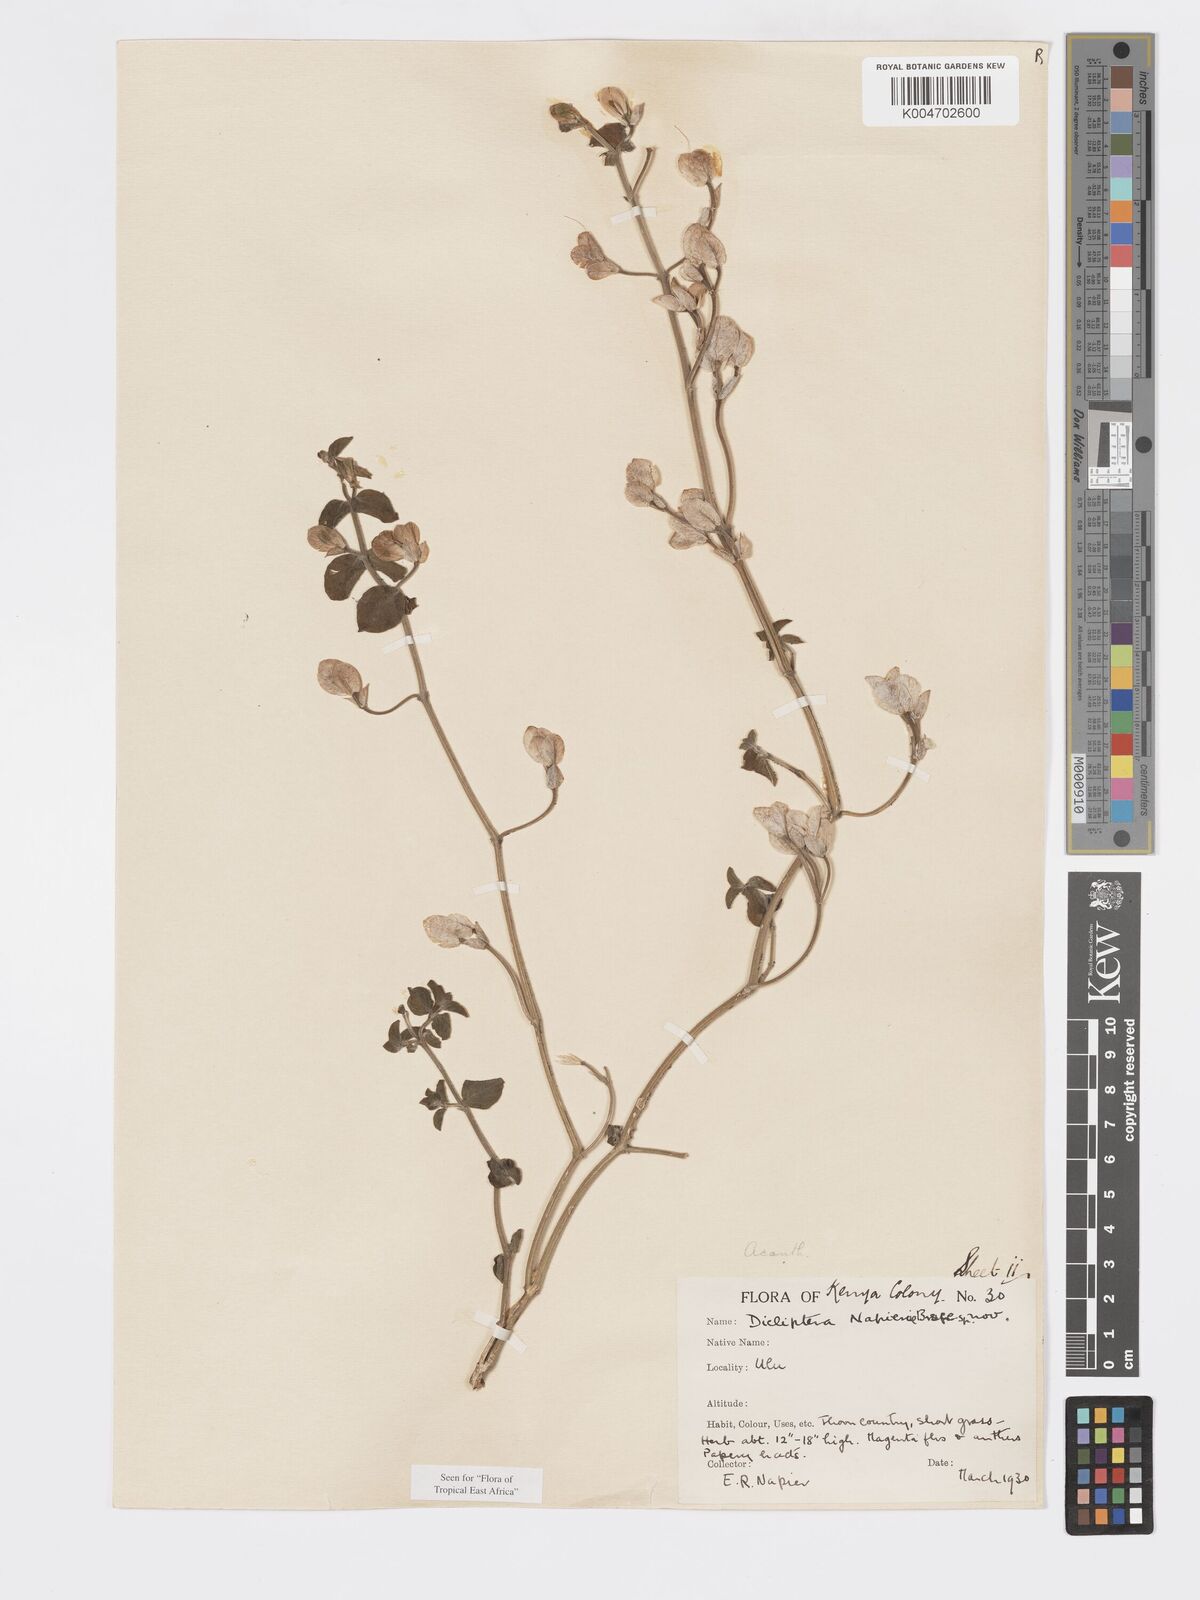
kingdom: Plantae
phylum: Tracheophyta
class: Magnoliopsida
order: Lamiales
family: Acanthaceae
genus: Dicliptera
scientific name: Dicliptera napierae
